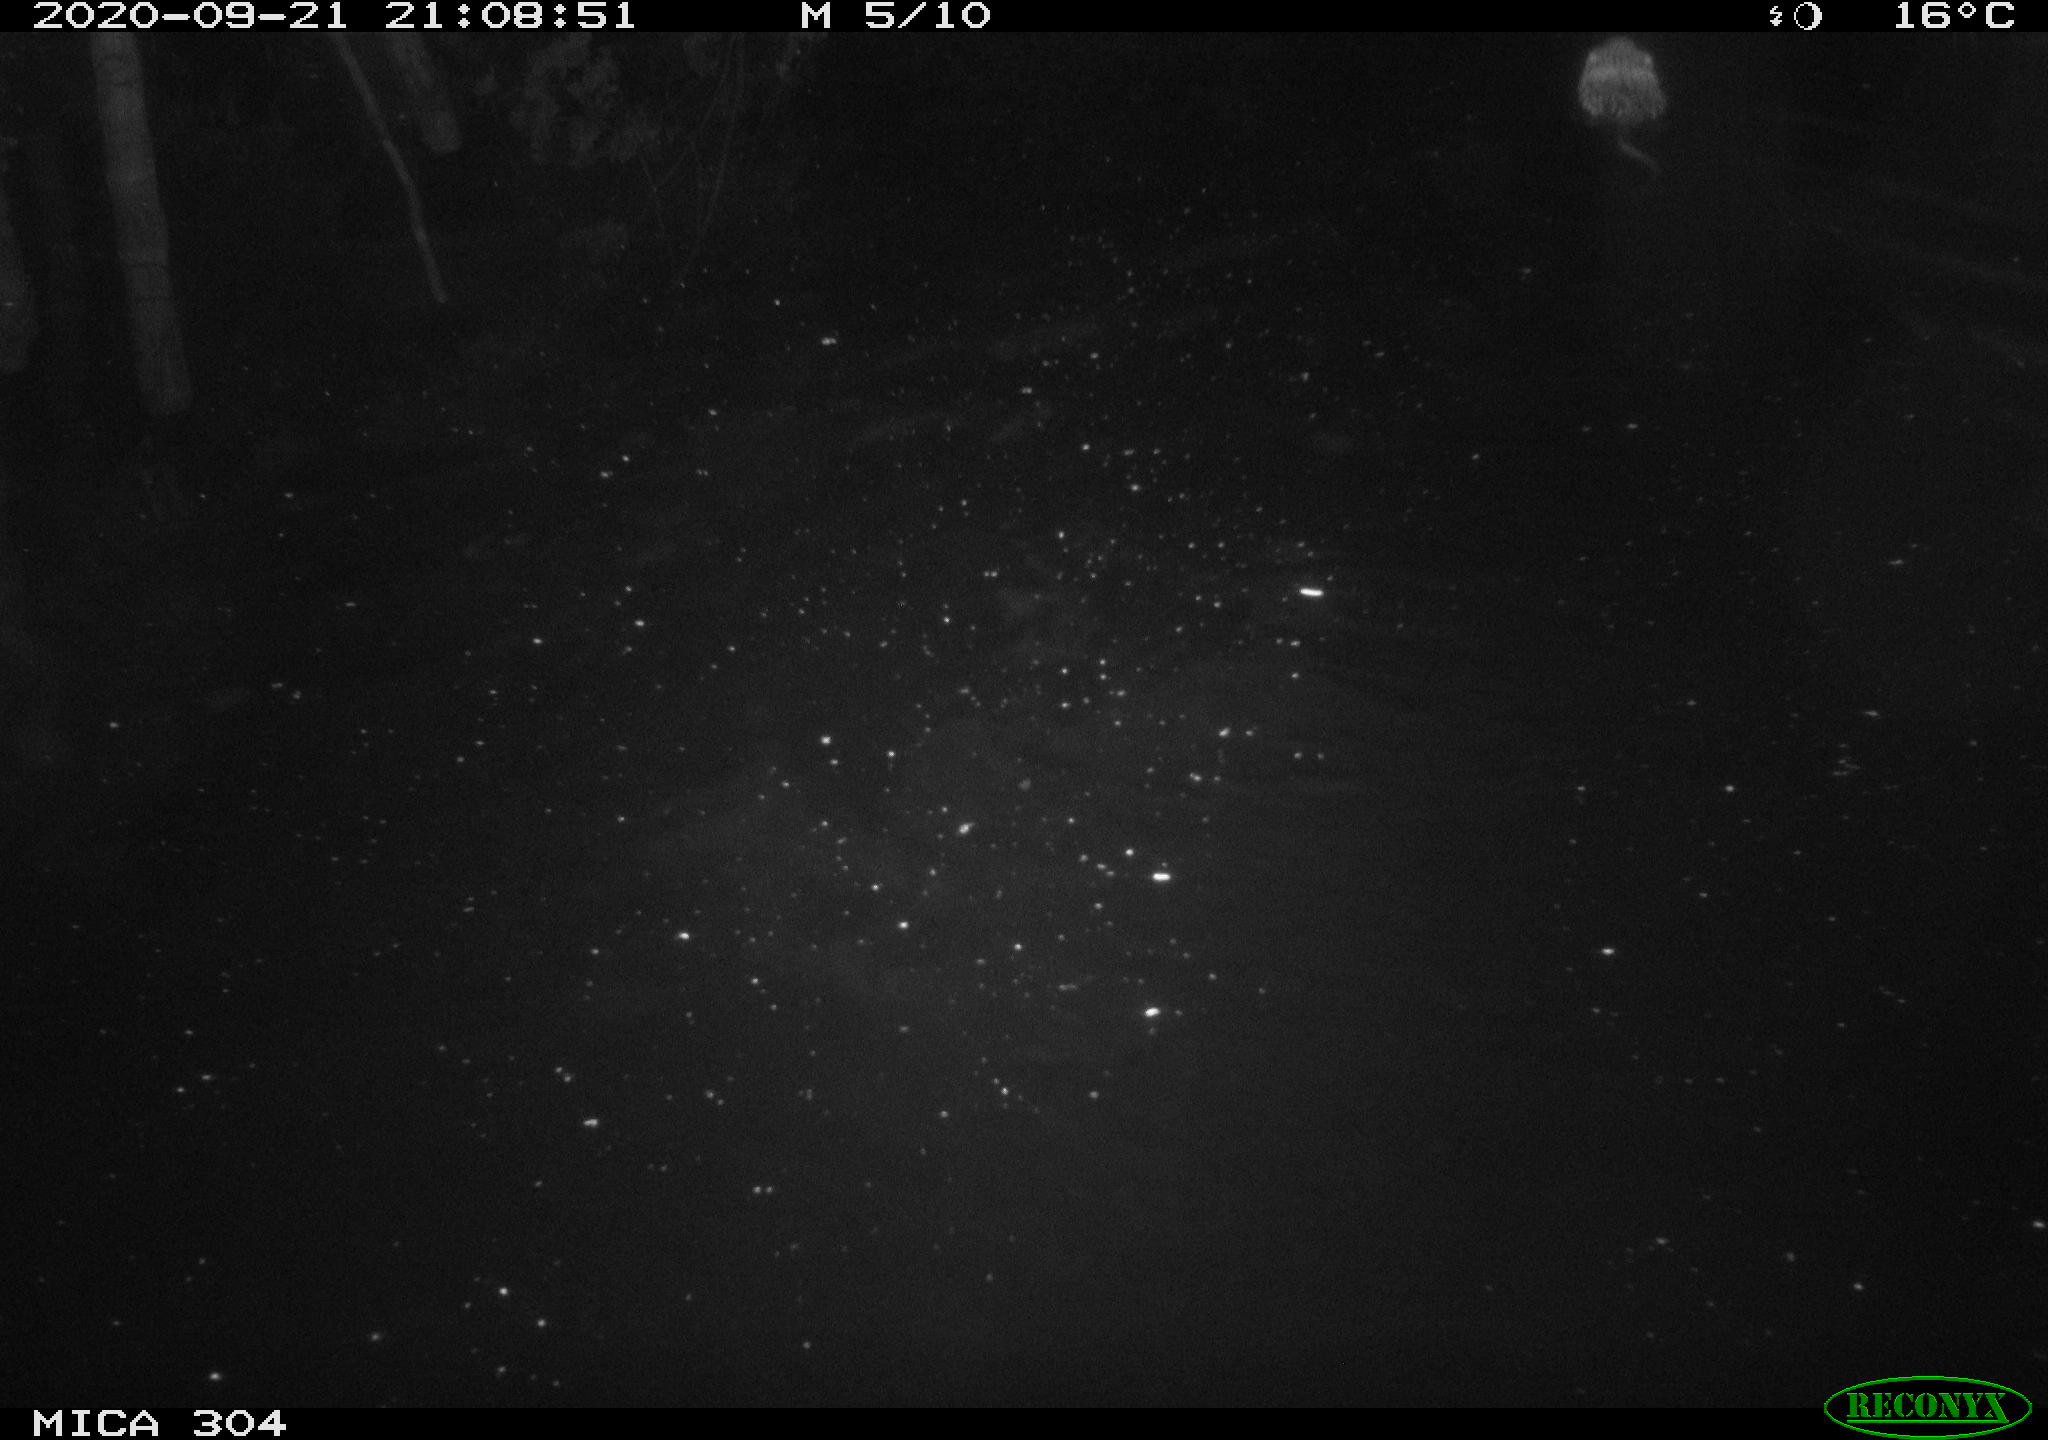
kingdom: Animalia
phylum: Chordata
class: Mammalia
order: Rodentia
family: Cricetidae
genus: Ondatra
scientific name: Ondatra zibethicus
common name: Muskrat
